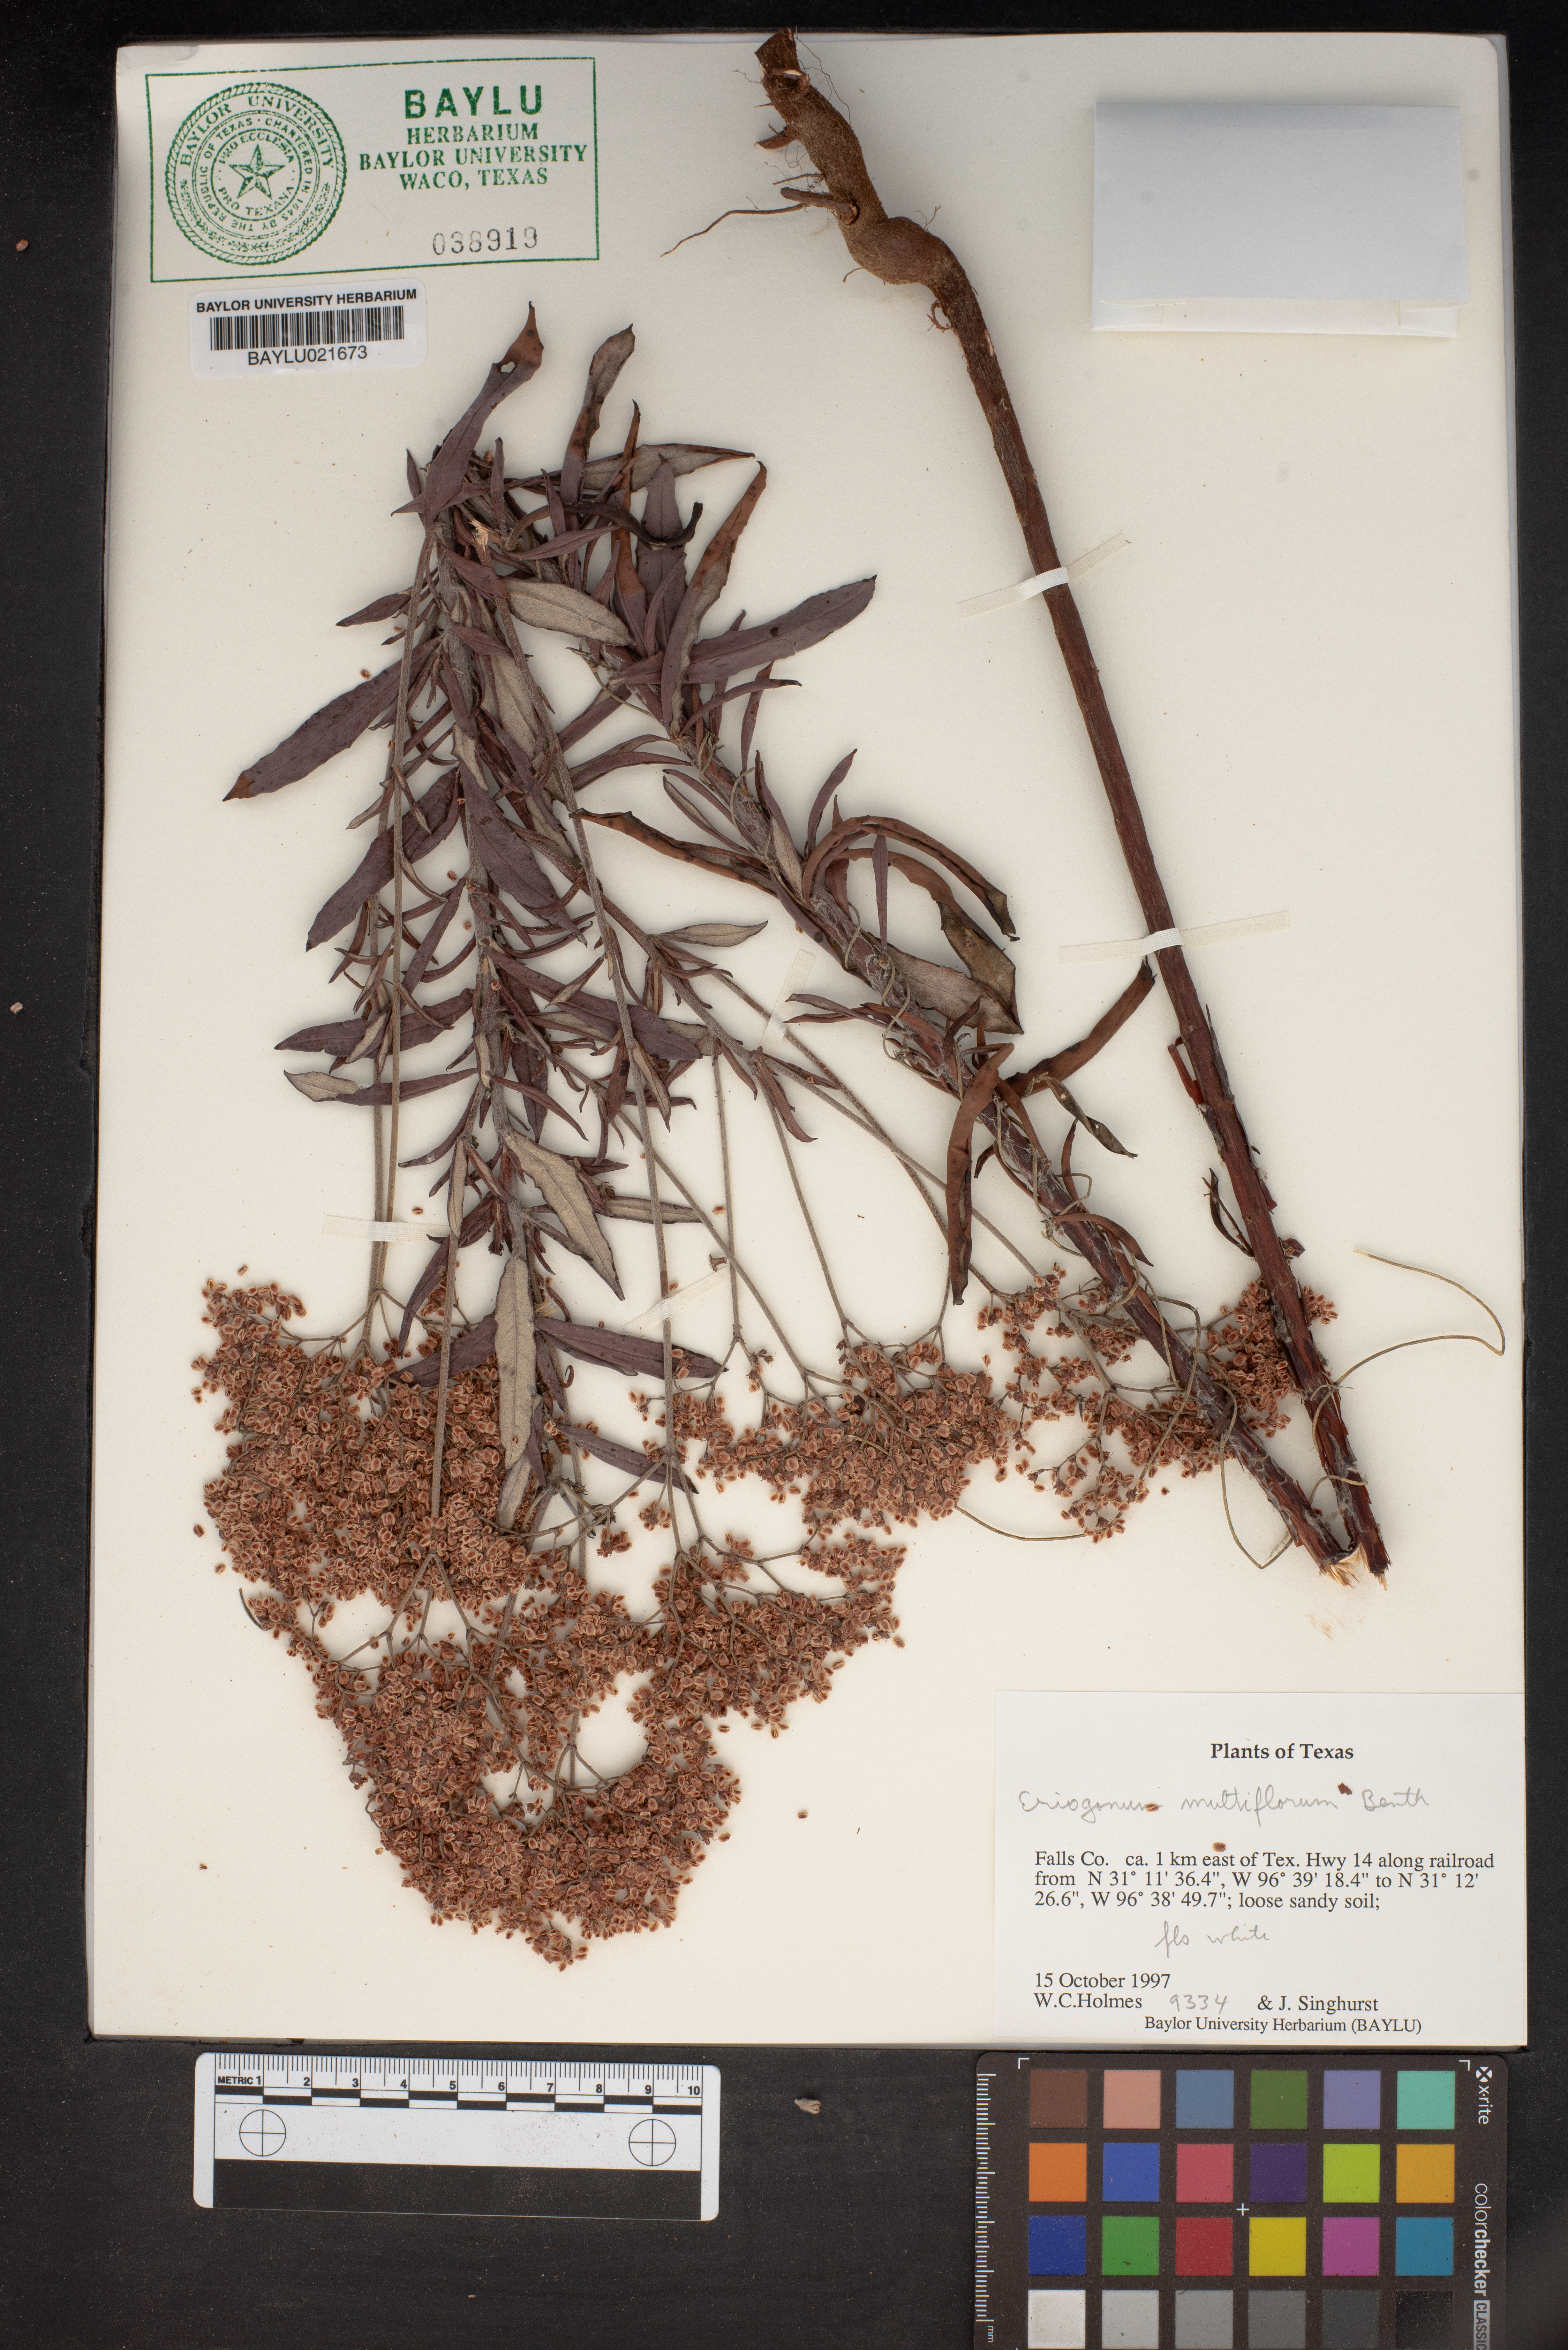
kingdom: Plantae
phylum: Tracheophyta
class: Magnoliopsida
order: Caryophyllales
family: Polygonaceae
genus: Eriogonum
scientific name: Eriogonum multiflorum
